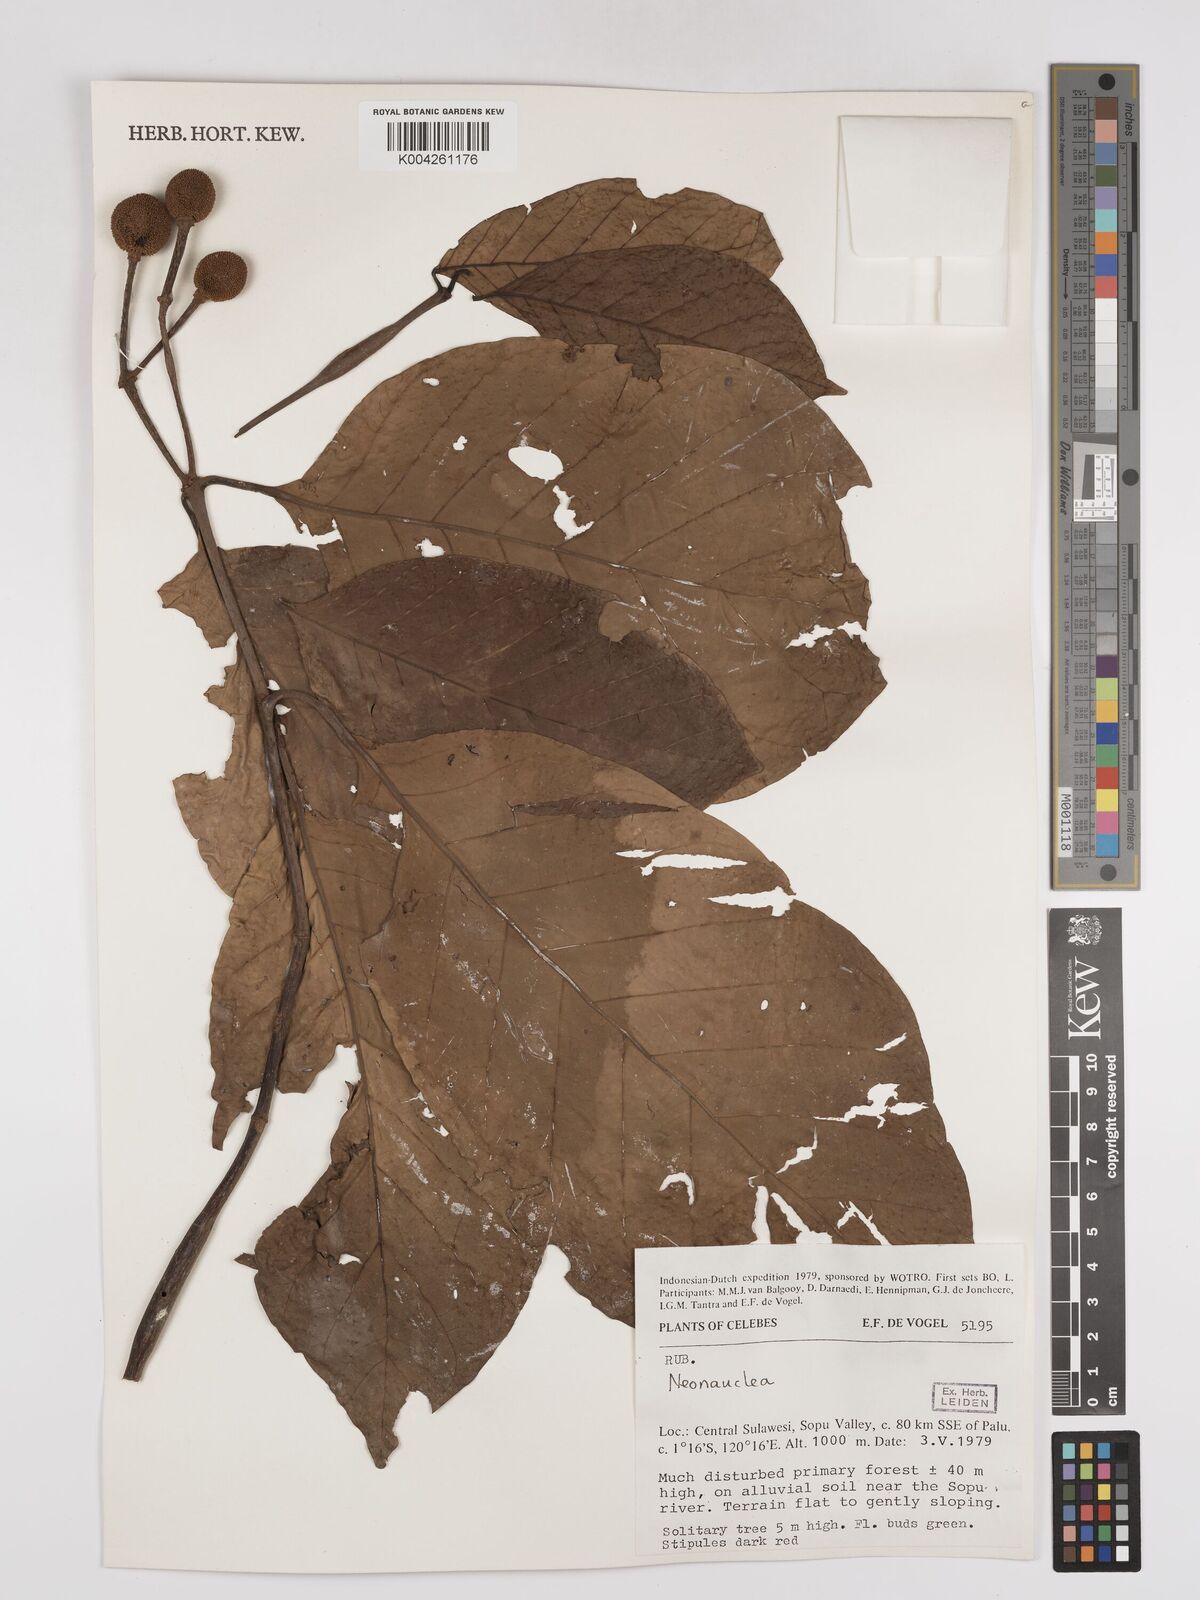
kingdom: Plantae
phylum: Tracheophyta
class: Magnoliopsida
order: Gentianales
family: Rubiaceae
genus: Neonauclea
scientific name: Neonauclea
